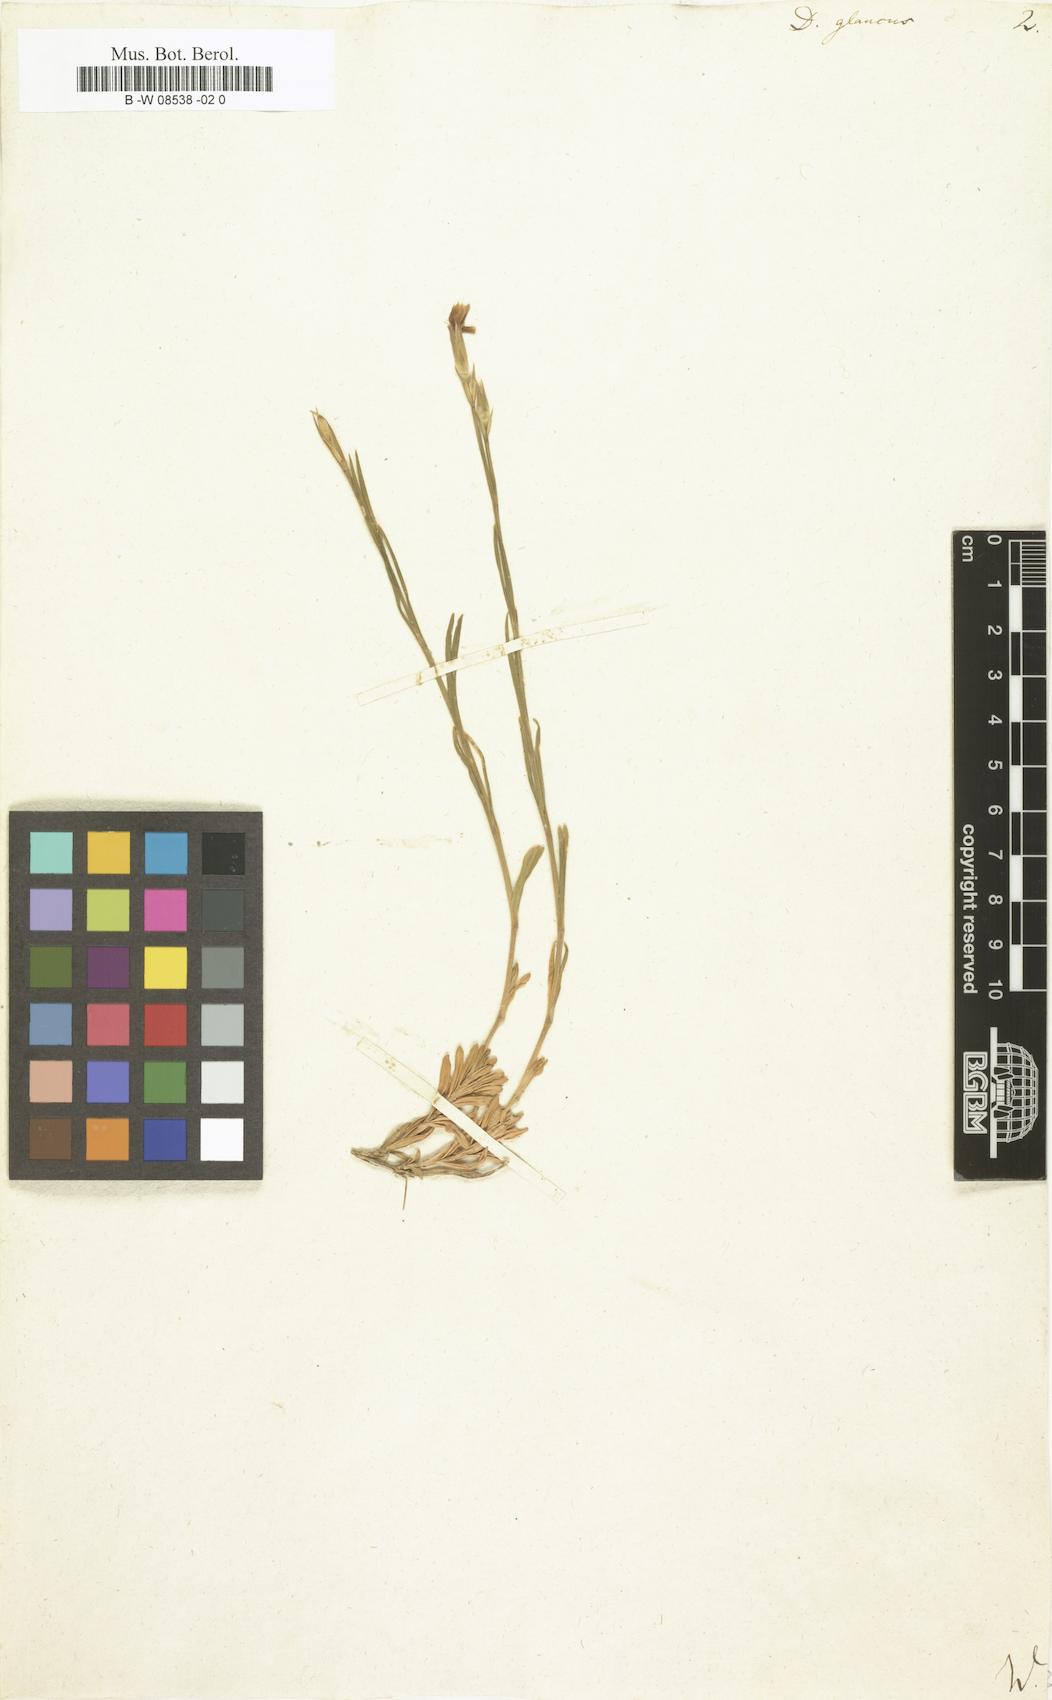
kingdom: Plantae
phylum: Tracheophyta
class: Magnoliopsida
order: Caryophyllales
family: Caryophyllaceae
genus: Dianthus
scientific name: Dianthus
